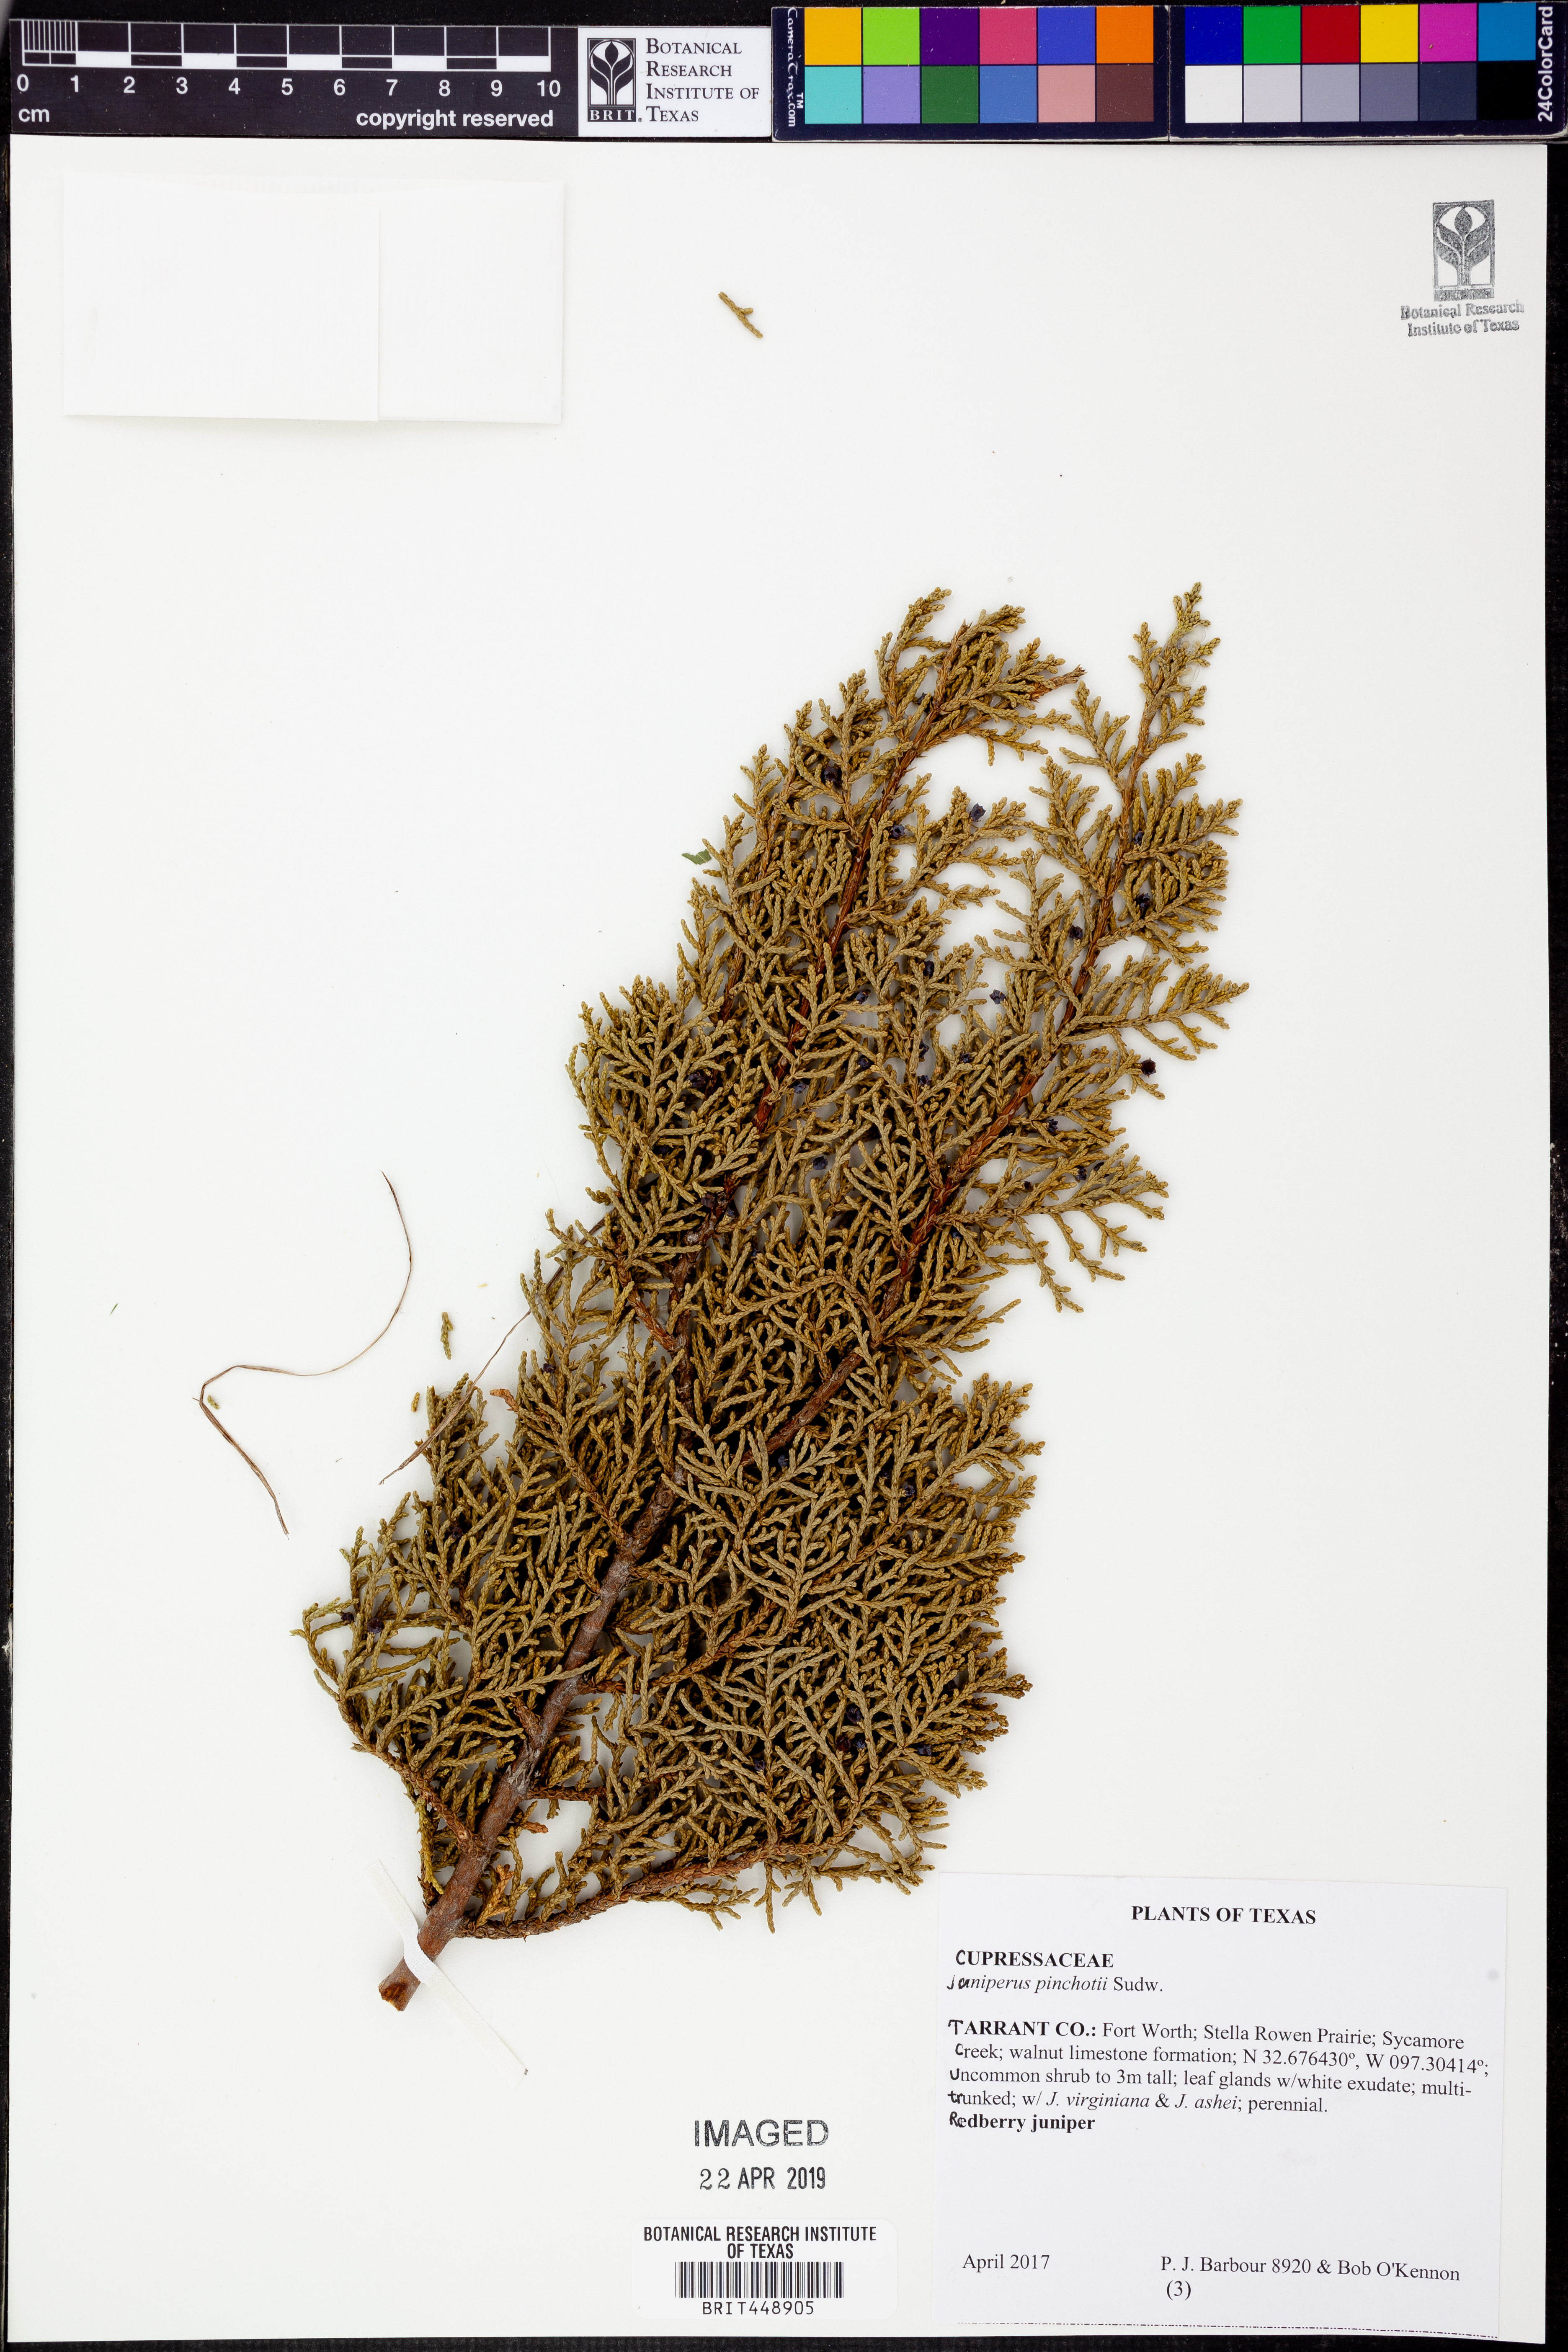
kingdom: Plantae
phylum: Tracheophyta
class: Pinopsida
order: Pinales
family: Cupressaceae
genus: Juniperus
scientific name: Juniperus pinchotii
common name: Pinchot juniper
